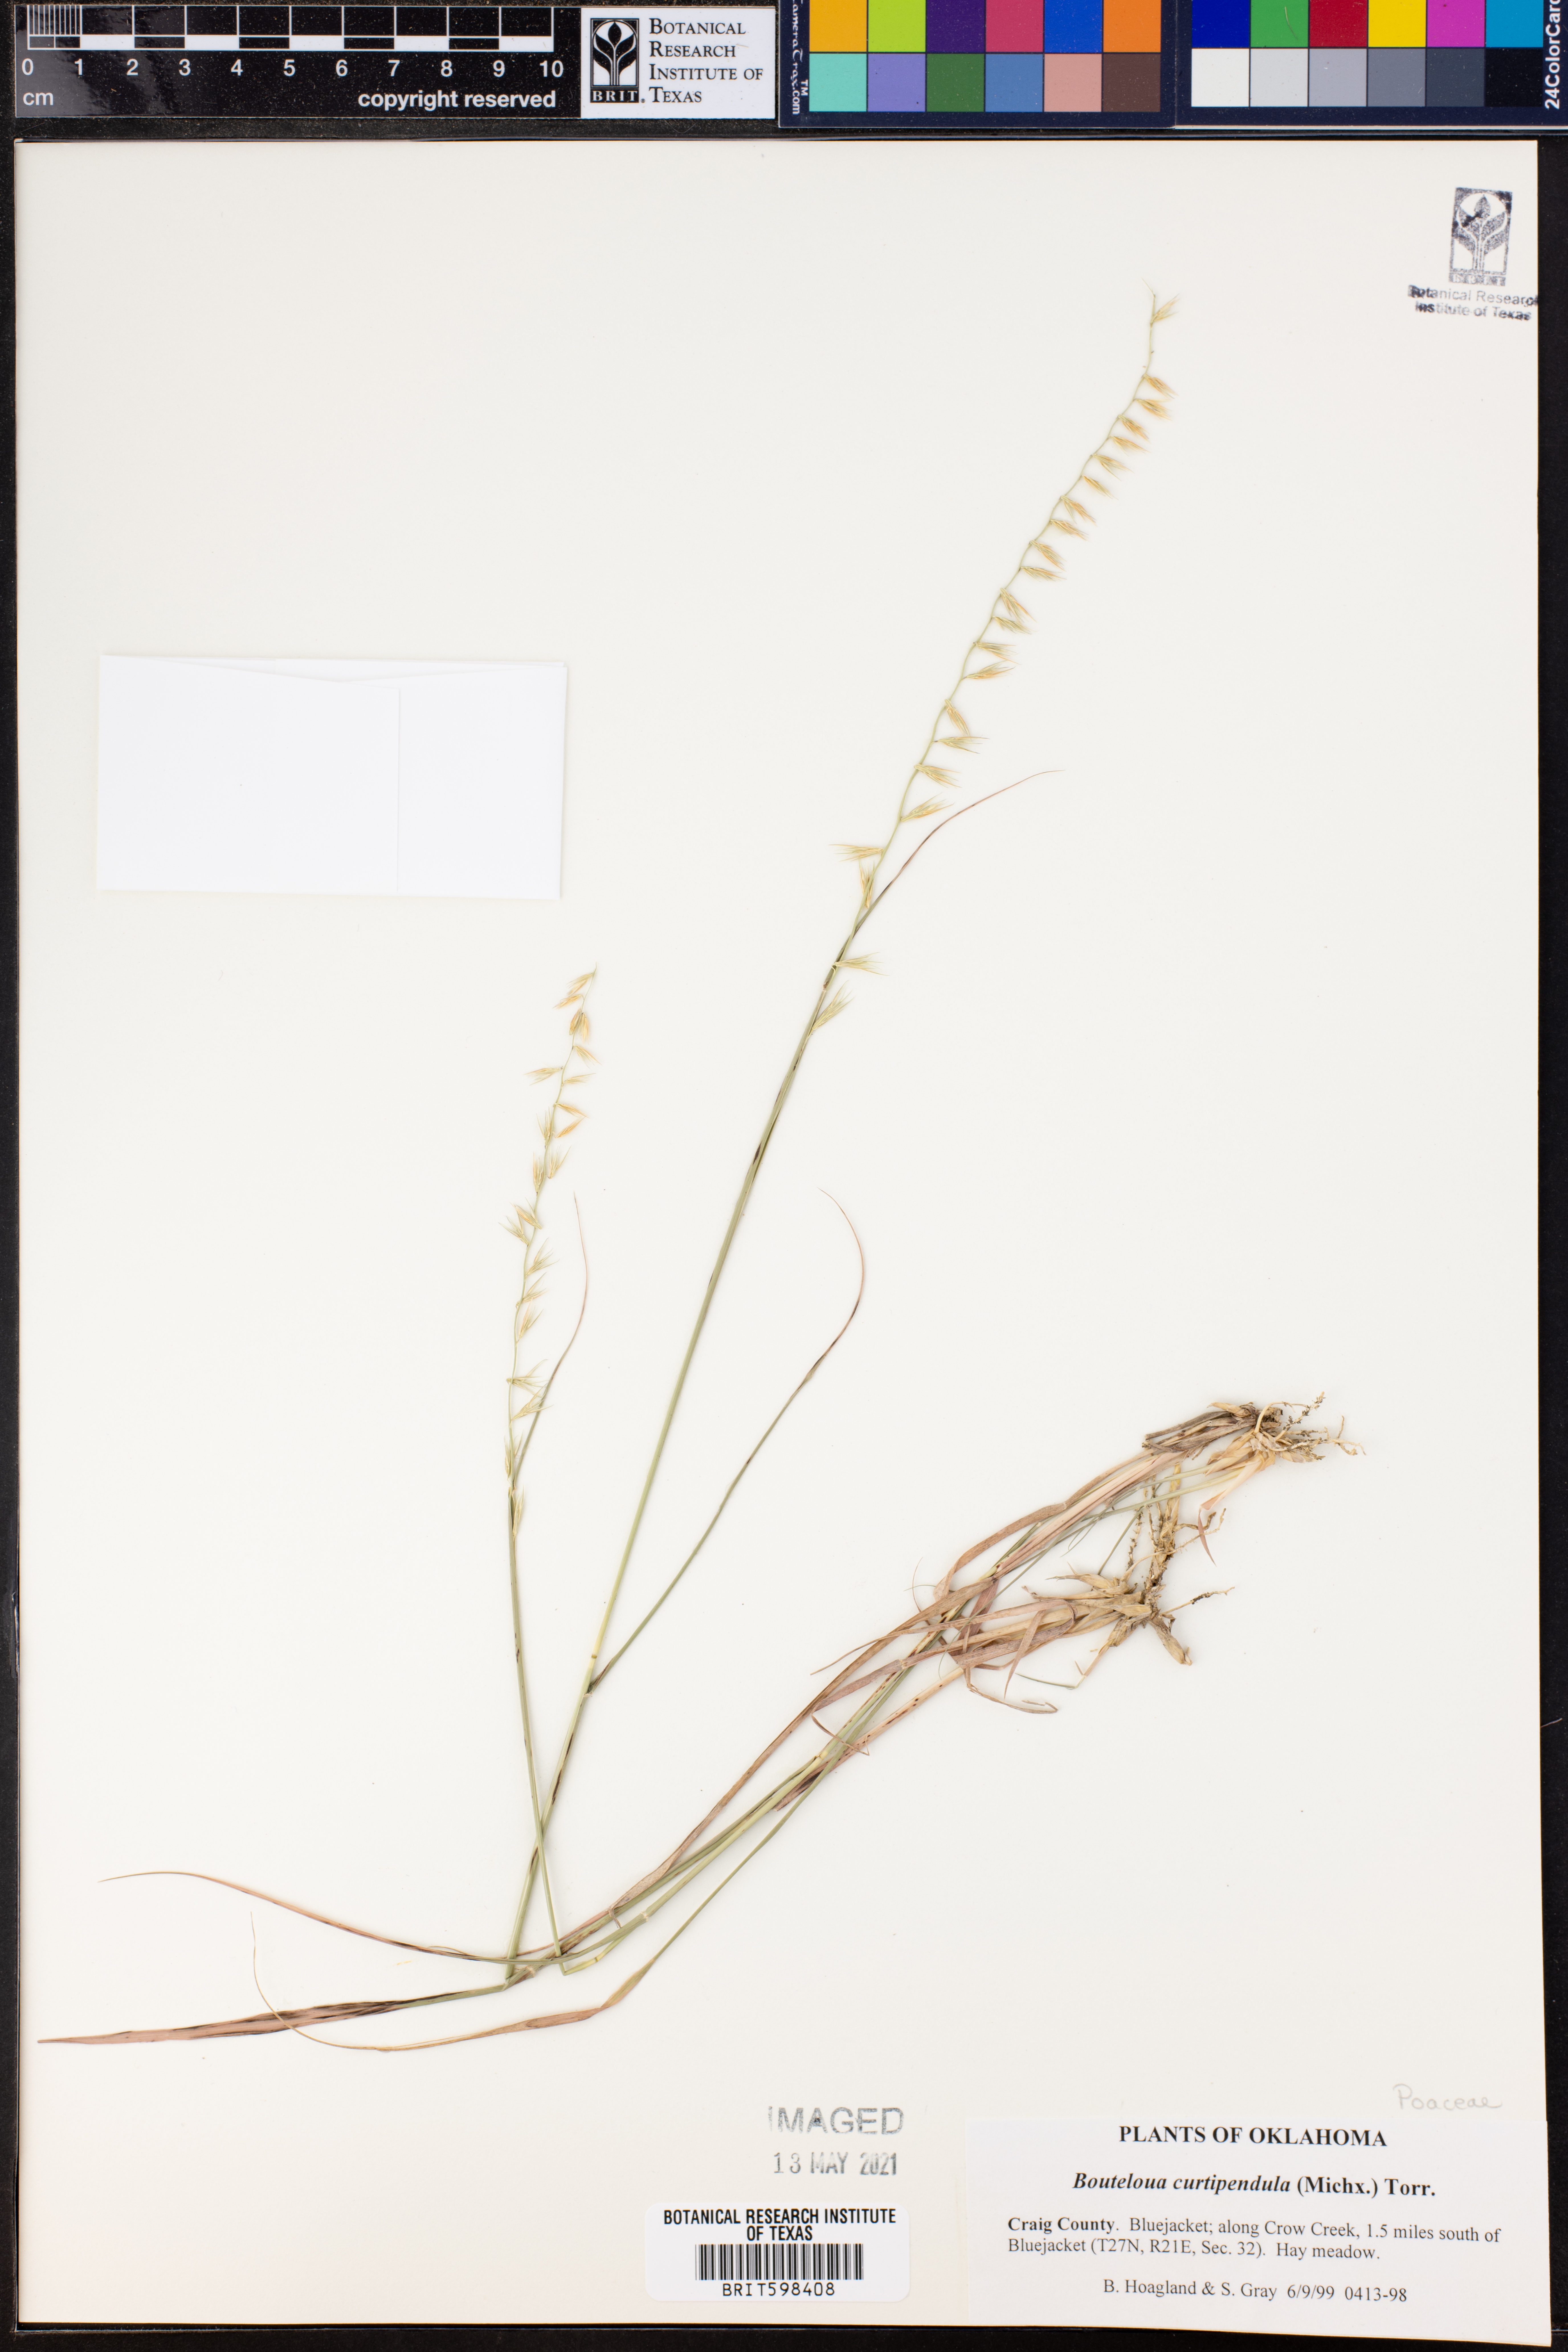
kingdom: Plantae
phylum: Tracheophyta
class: Liliopsida
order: Poales
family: Poaceae
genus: Bouteloua
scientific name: Bouteloua curtipendula
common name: Side-oats grama
